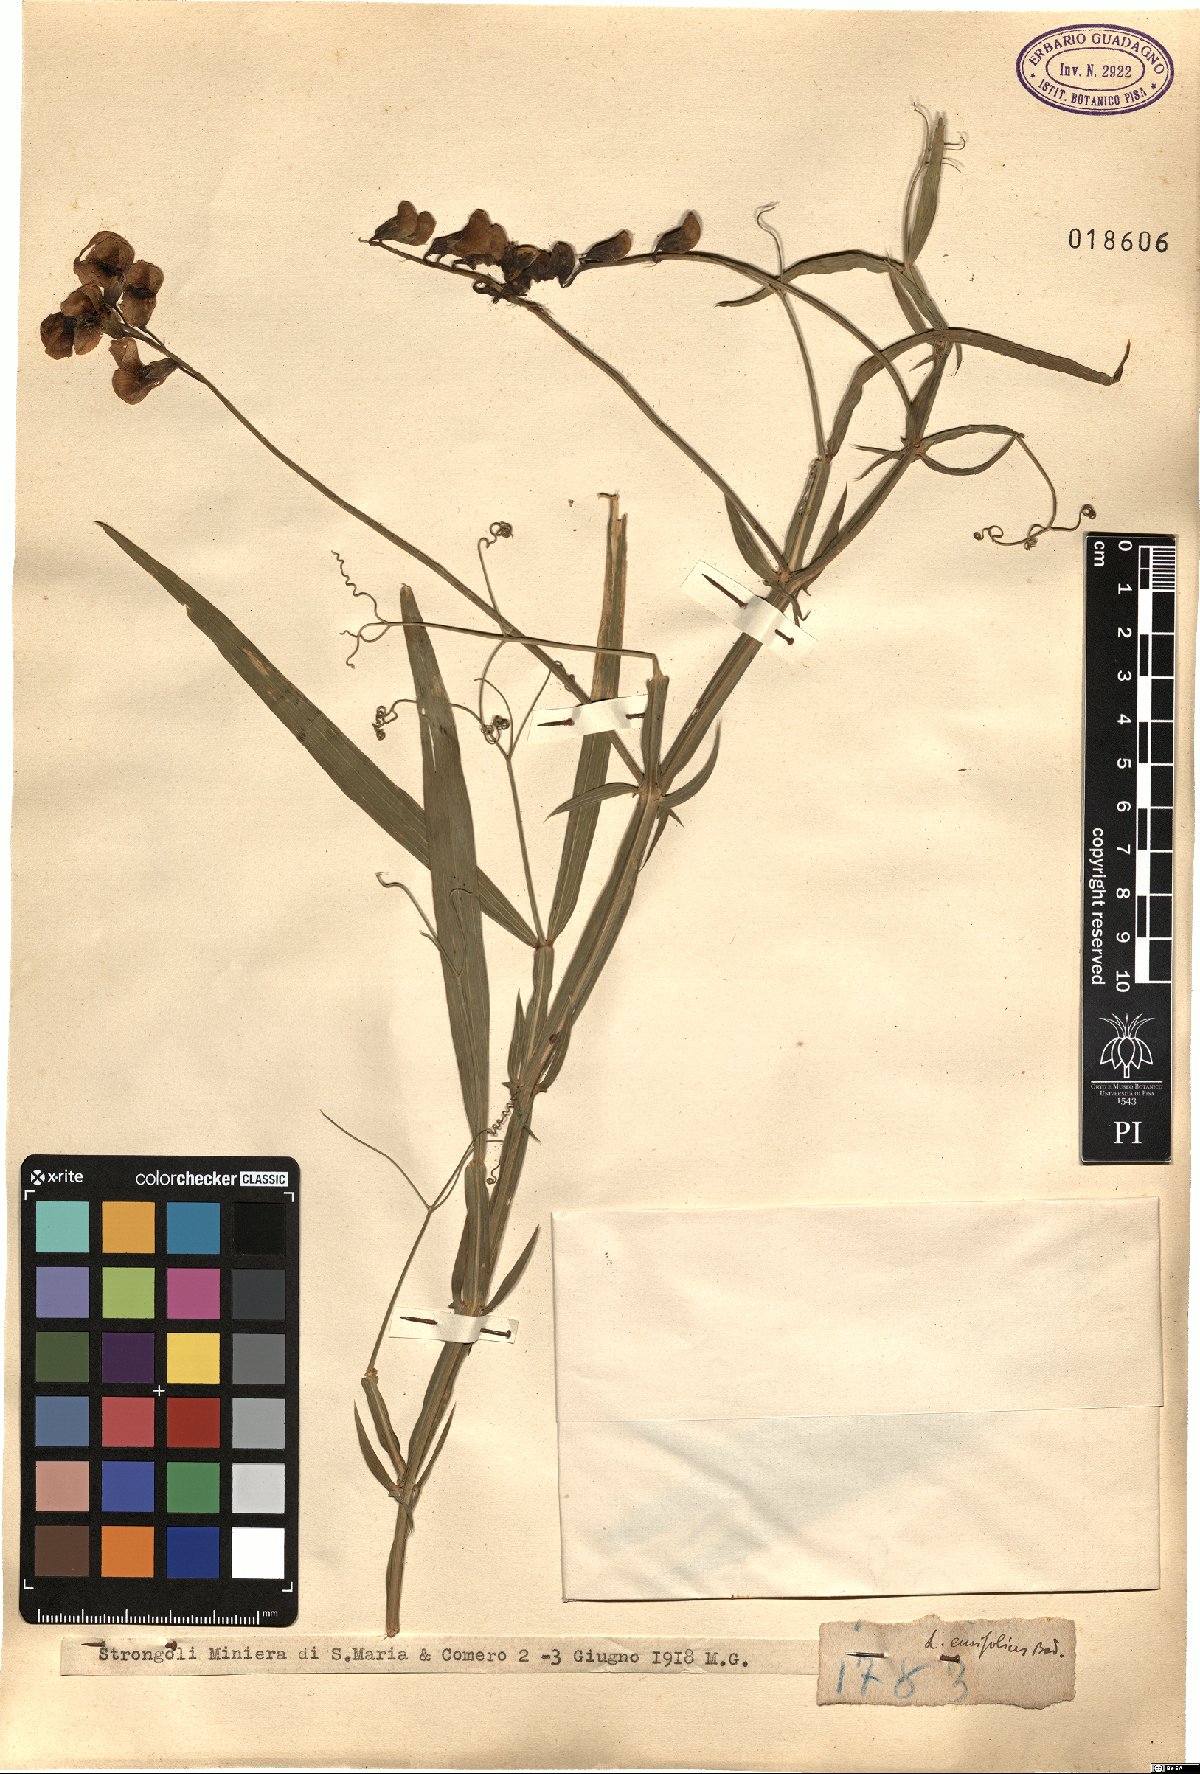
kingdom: Plantae
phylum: Tracheophyta
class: Magnoliopsida
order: Fabales
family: Fabaceae
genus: Lathyrus
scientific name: Lathyrus bauhini
